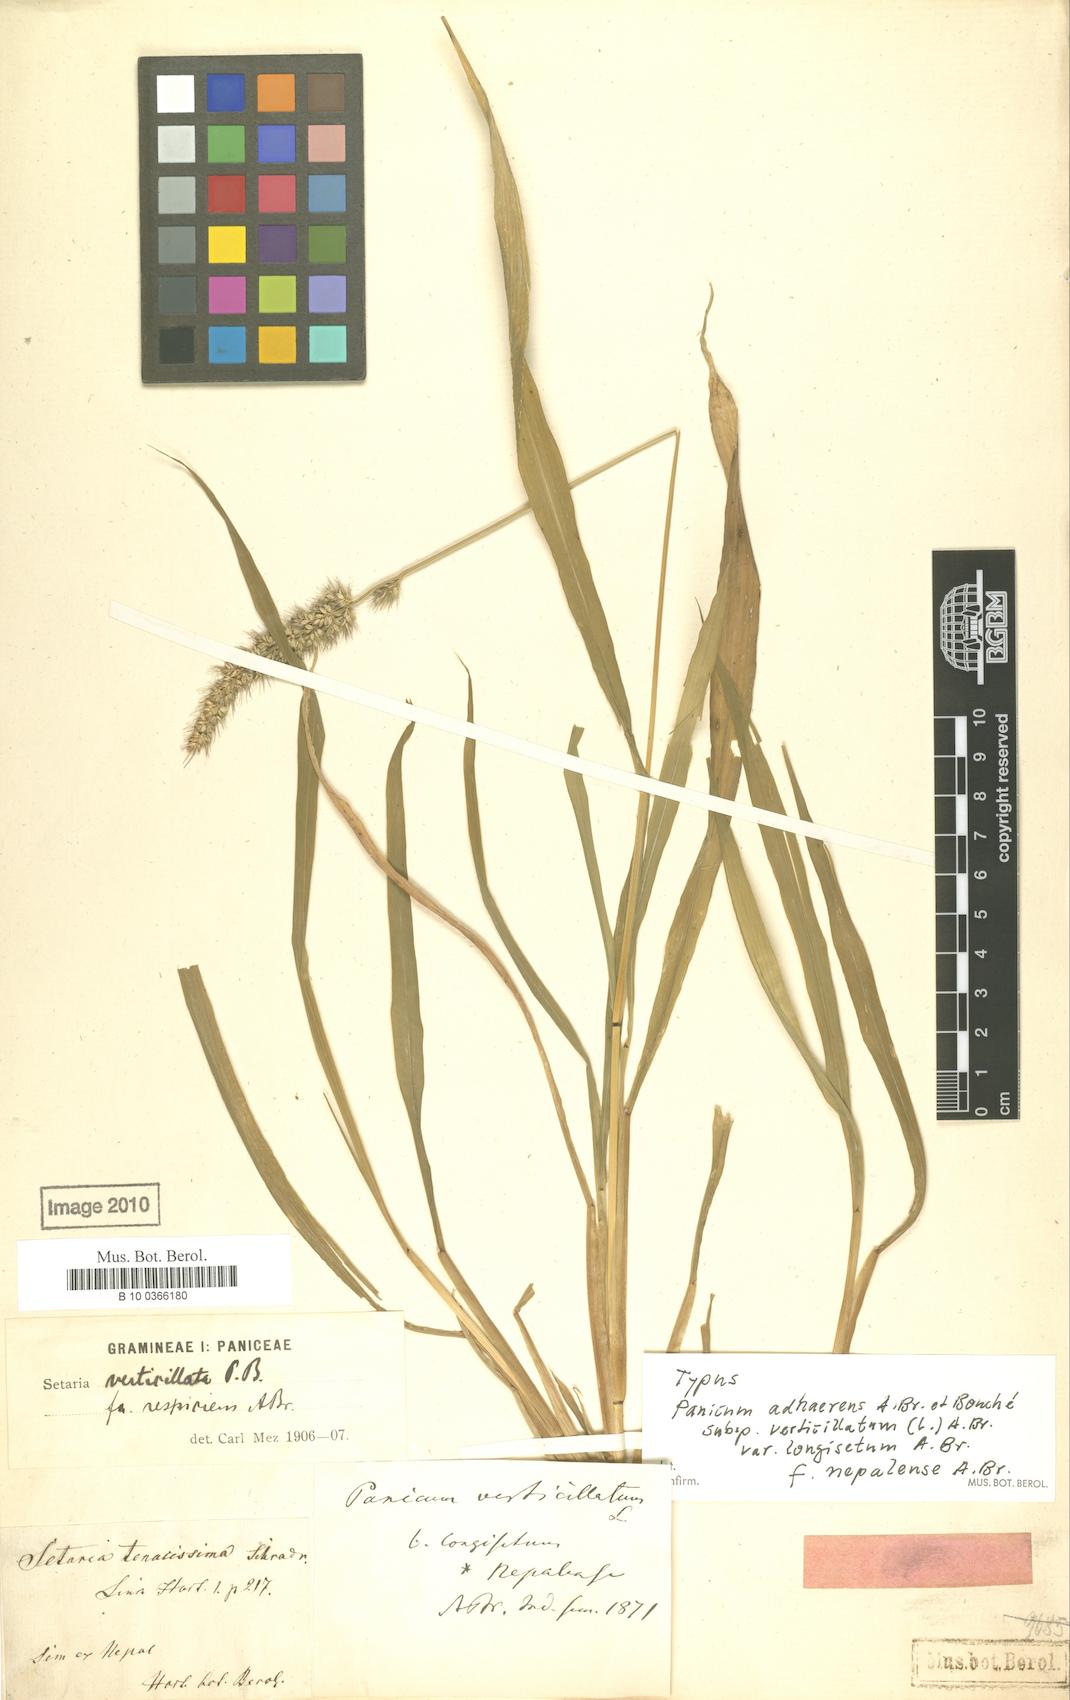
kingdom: Plantae
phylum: Tracheophyta
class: Liliopsida
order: Poales
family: Poaceae
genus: Setaria
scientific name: Setaria adhaerens
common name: Adherent bristle-grass
